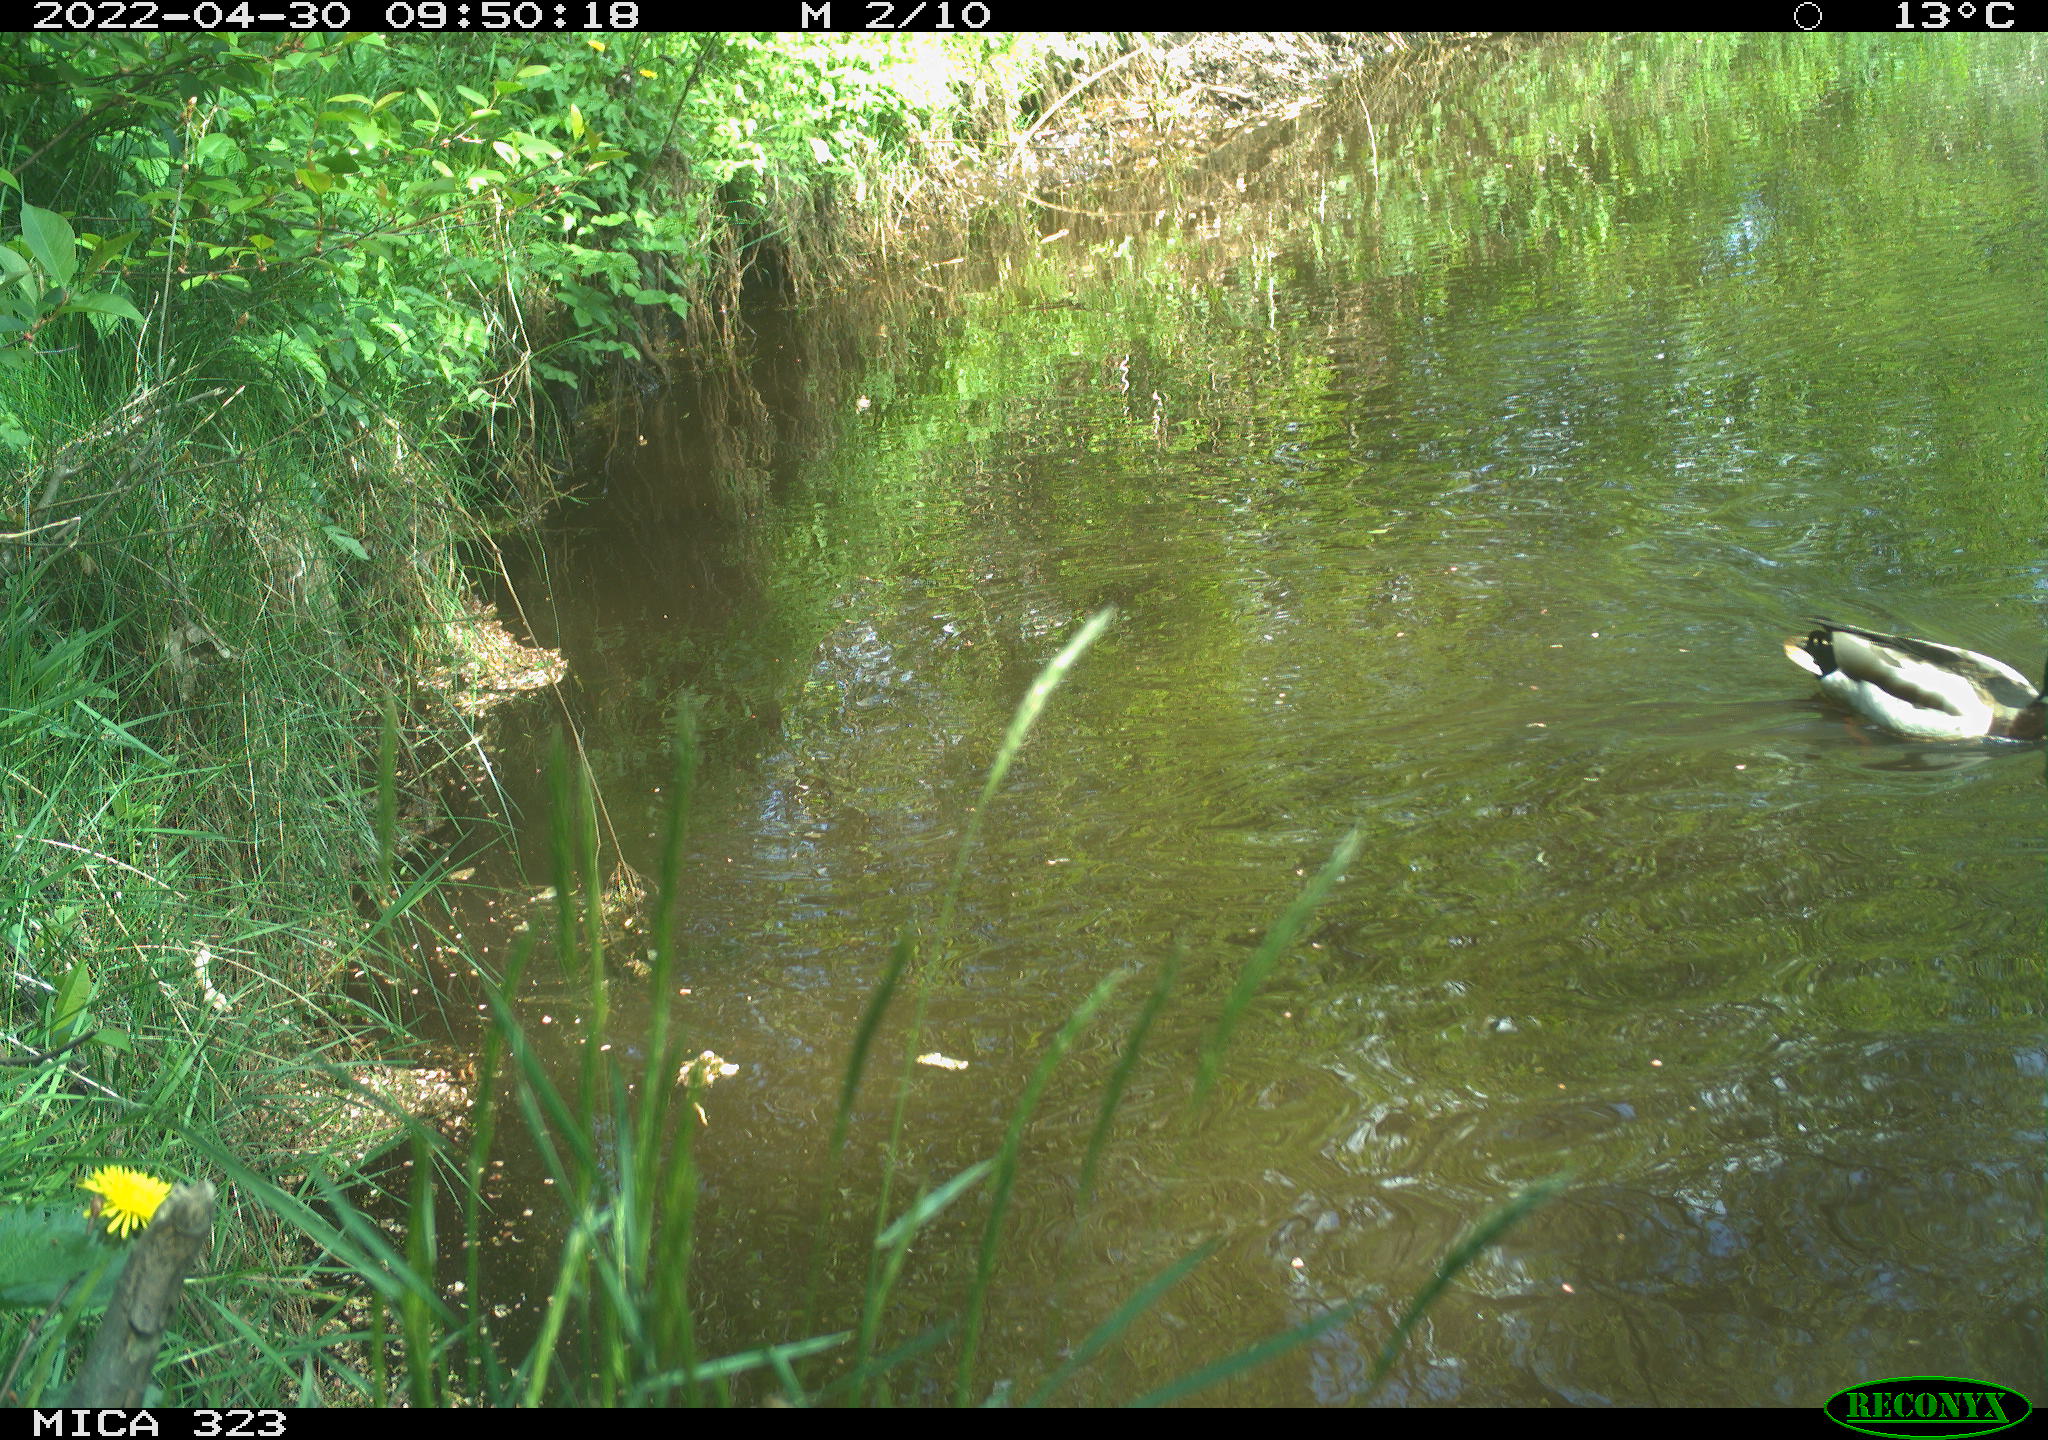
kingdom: Animalia
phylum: Chordata
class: Aves
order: Anseriformes
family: Anatidae
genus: Anas
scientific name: Anas platyrhynchos
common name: Mallard
